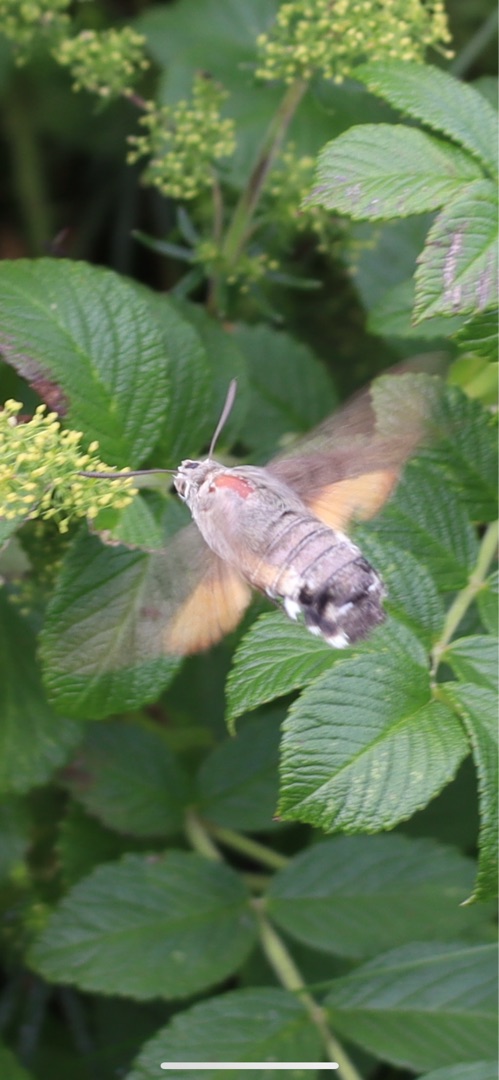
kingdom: Animalia
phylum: Arthropoda
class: Insecta
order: Lepidoptera
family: Sphingidae
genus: Macroglossum
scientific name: Macroglossum stellatarum
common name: Duehale
